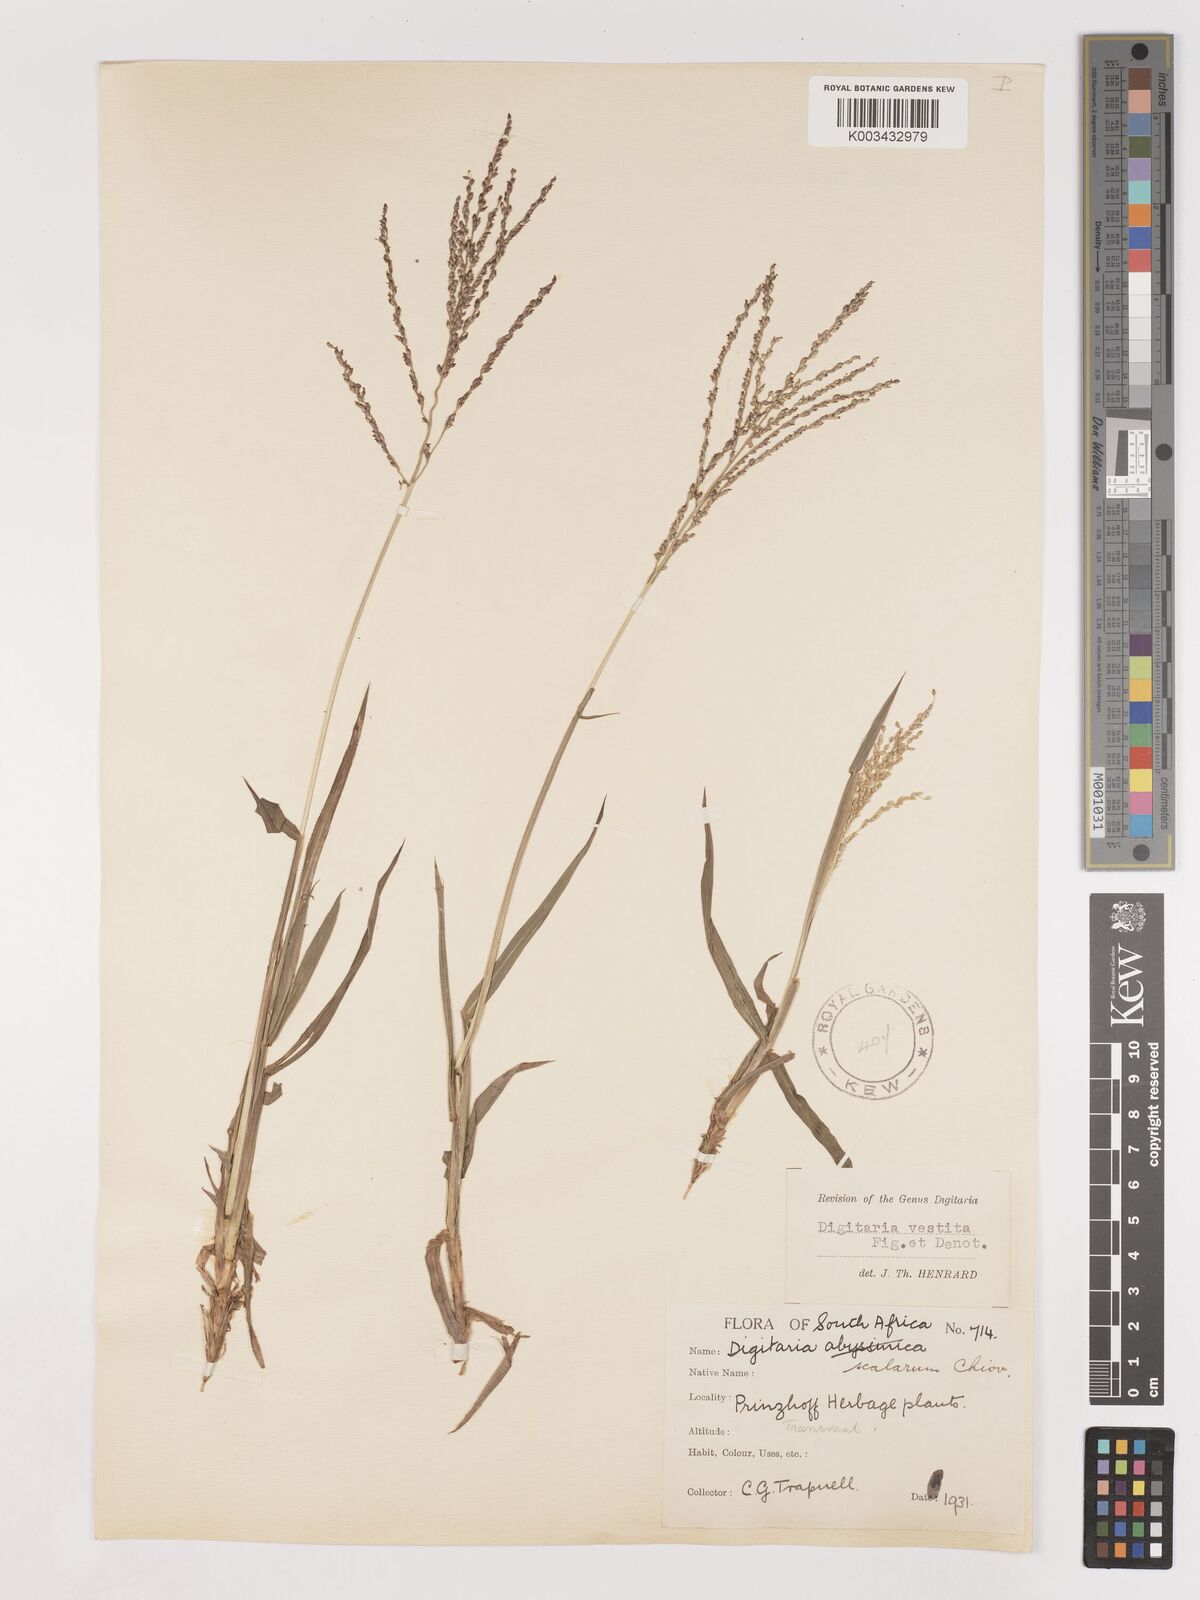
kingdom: Plantae
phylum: Tracheophyta
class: Liliopsida
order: Poales
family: Poaceae
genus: Digitaria
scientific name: Digitaria abyssinica
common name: African couchgrass
